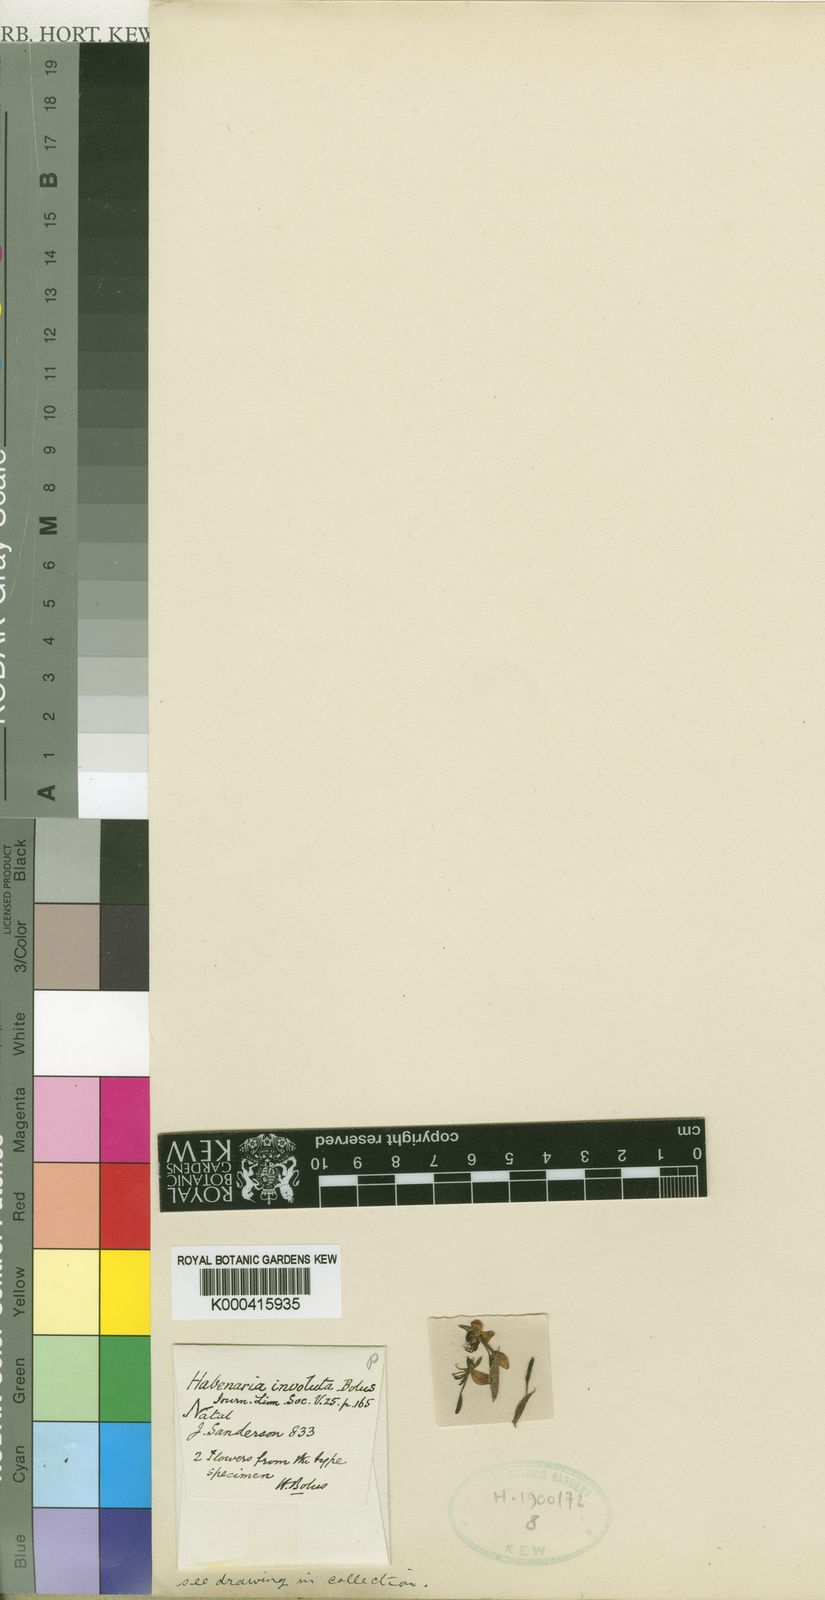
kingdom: Plantae
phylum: Tracheophyta
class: Liliopsida
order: Asparagales
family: Orchidaceae
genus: Habenaria
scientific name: Habenaria schimperiana
